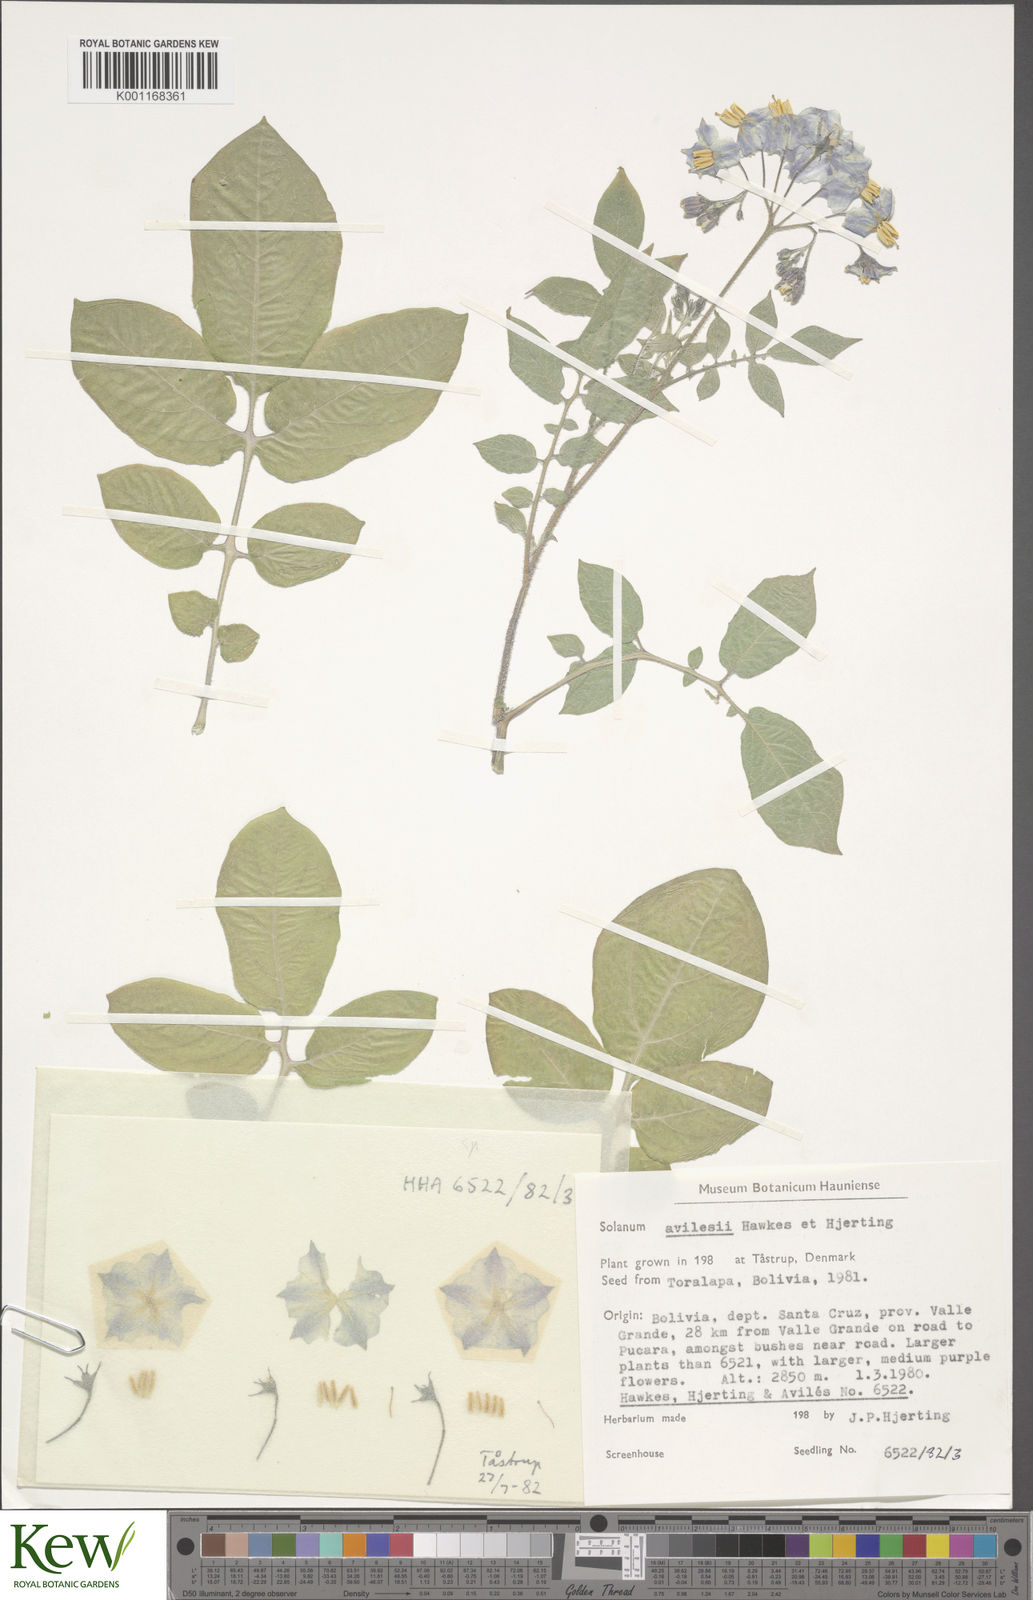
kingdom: Plantae
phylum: Tracheophyta
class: Magnoliopsida
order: Solanales
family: Solanaceae
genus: Solanum
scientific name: Solanum brevicaule
